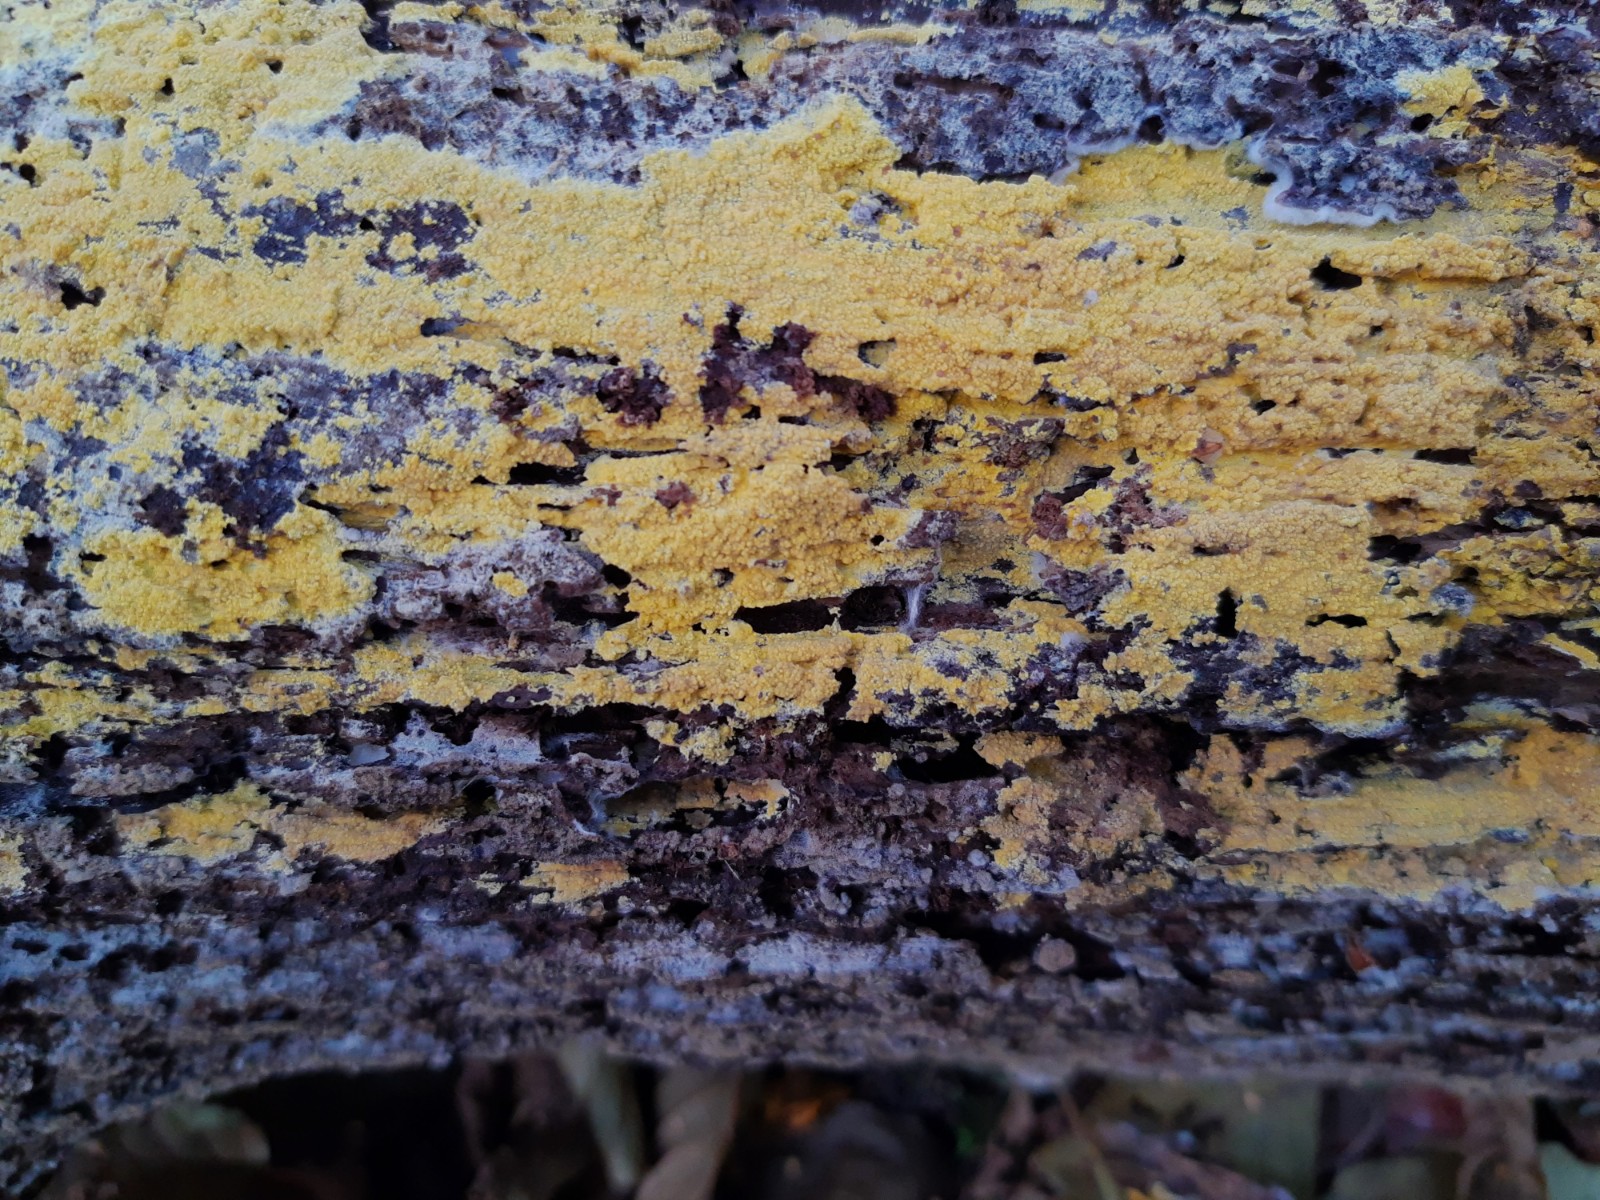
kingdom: Fungi
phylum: Basidiomycota
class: Agaricomycetes
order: Polyporales
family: Meruliaceae
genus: Phlebiodontia
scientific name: Phlebiodontia subochracea
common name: svovl-åresvamp
